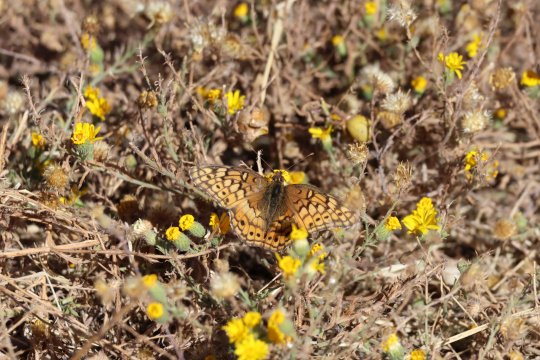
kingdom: Animalia
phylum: Arthropoda
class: Insecta
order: Lepidoptera
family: Nymphalidae
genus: Euptoieta
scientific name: Euptoieta claudia
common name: Variegated Fritillary
